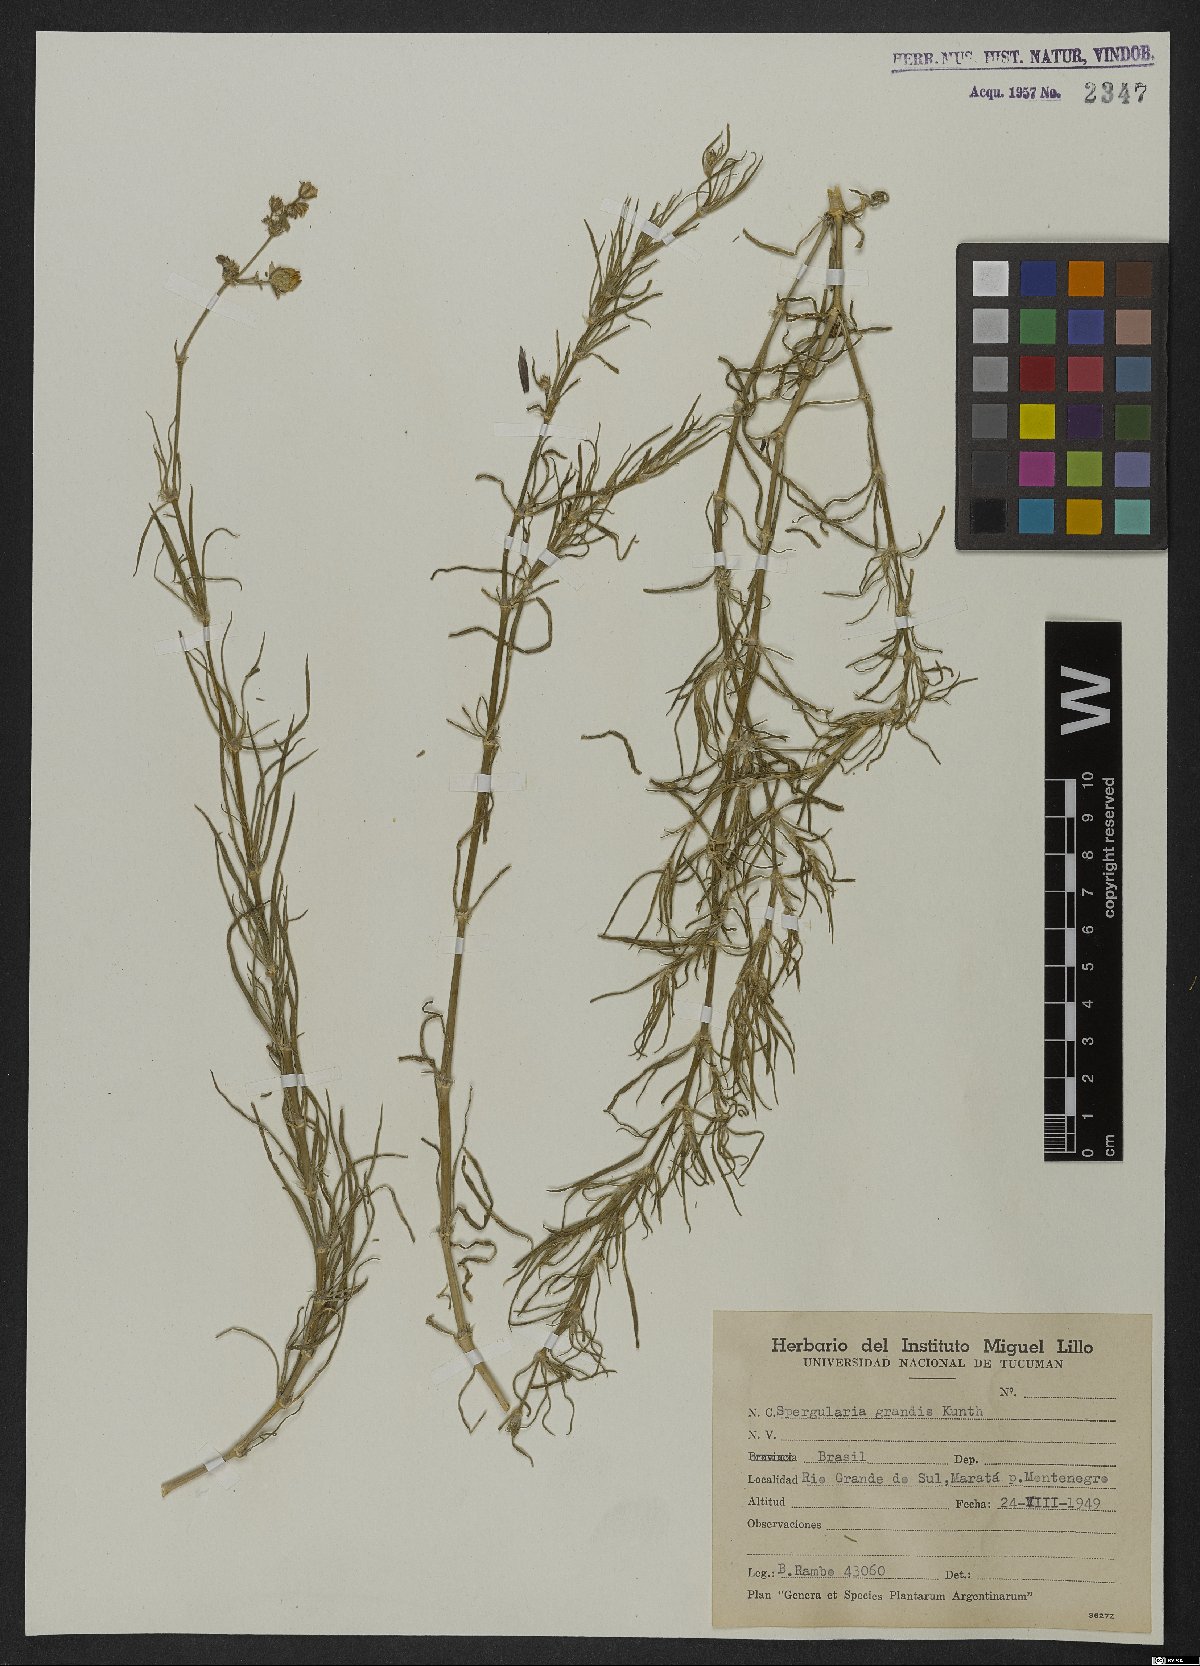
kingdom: Plantae
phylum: Tracheophyta
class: Magnoliopsida
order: Caryophyllales
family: Caryophyllaceae
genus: Spergula
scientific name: Spergula grandis
